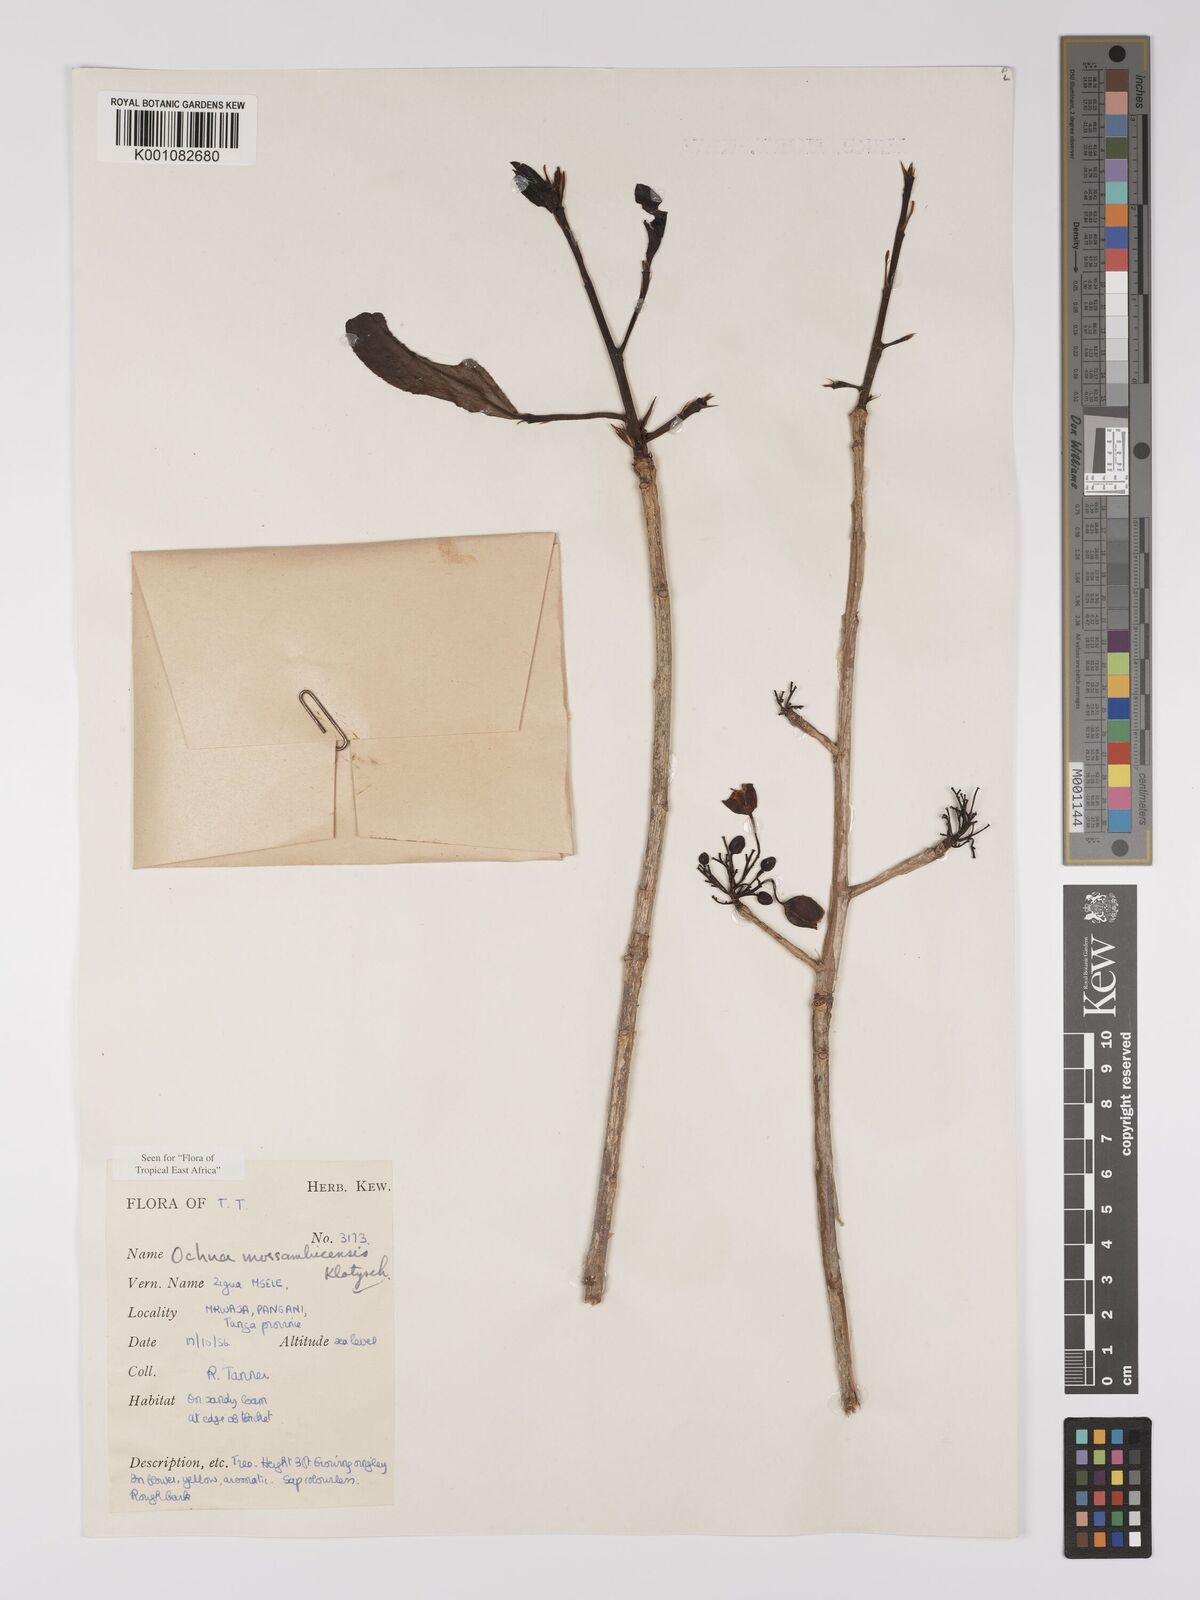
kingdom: Plantae
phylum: Tracheophyta
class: Magnoliopsida
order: Malpighiales
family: Ochnaceae
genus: Ochna
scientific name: Ochna atropurpurea
